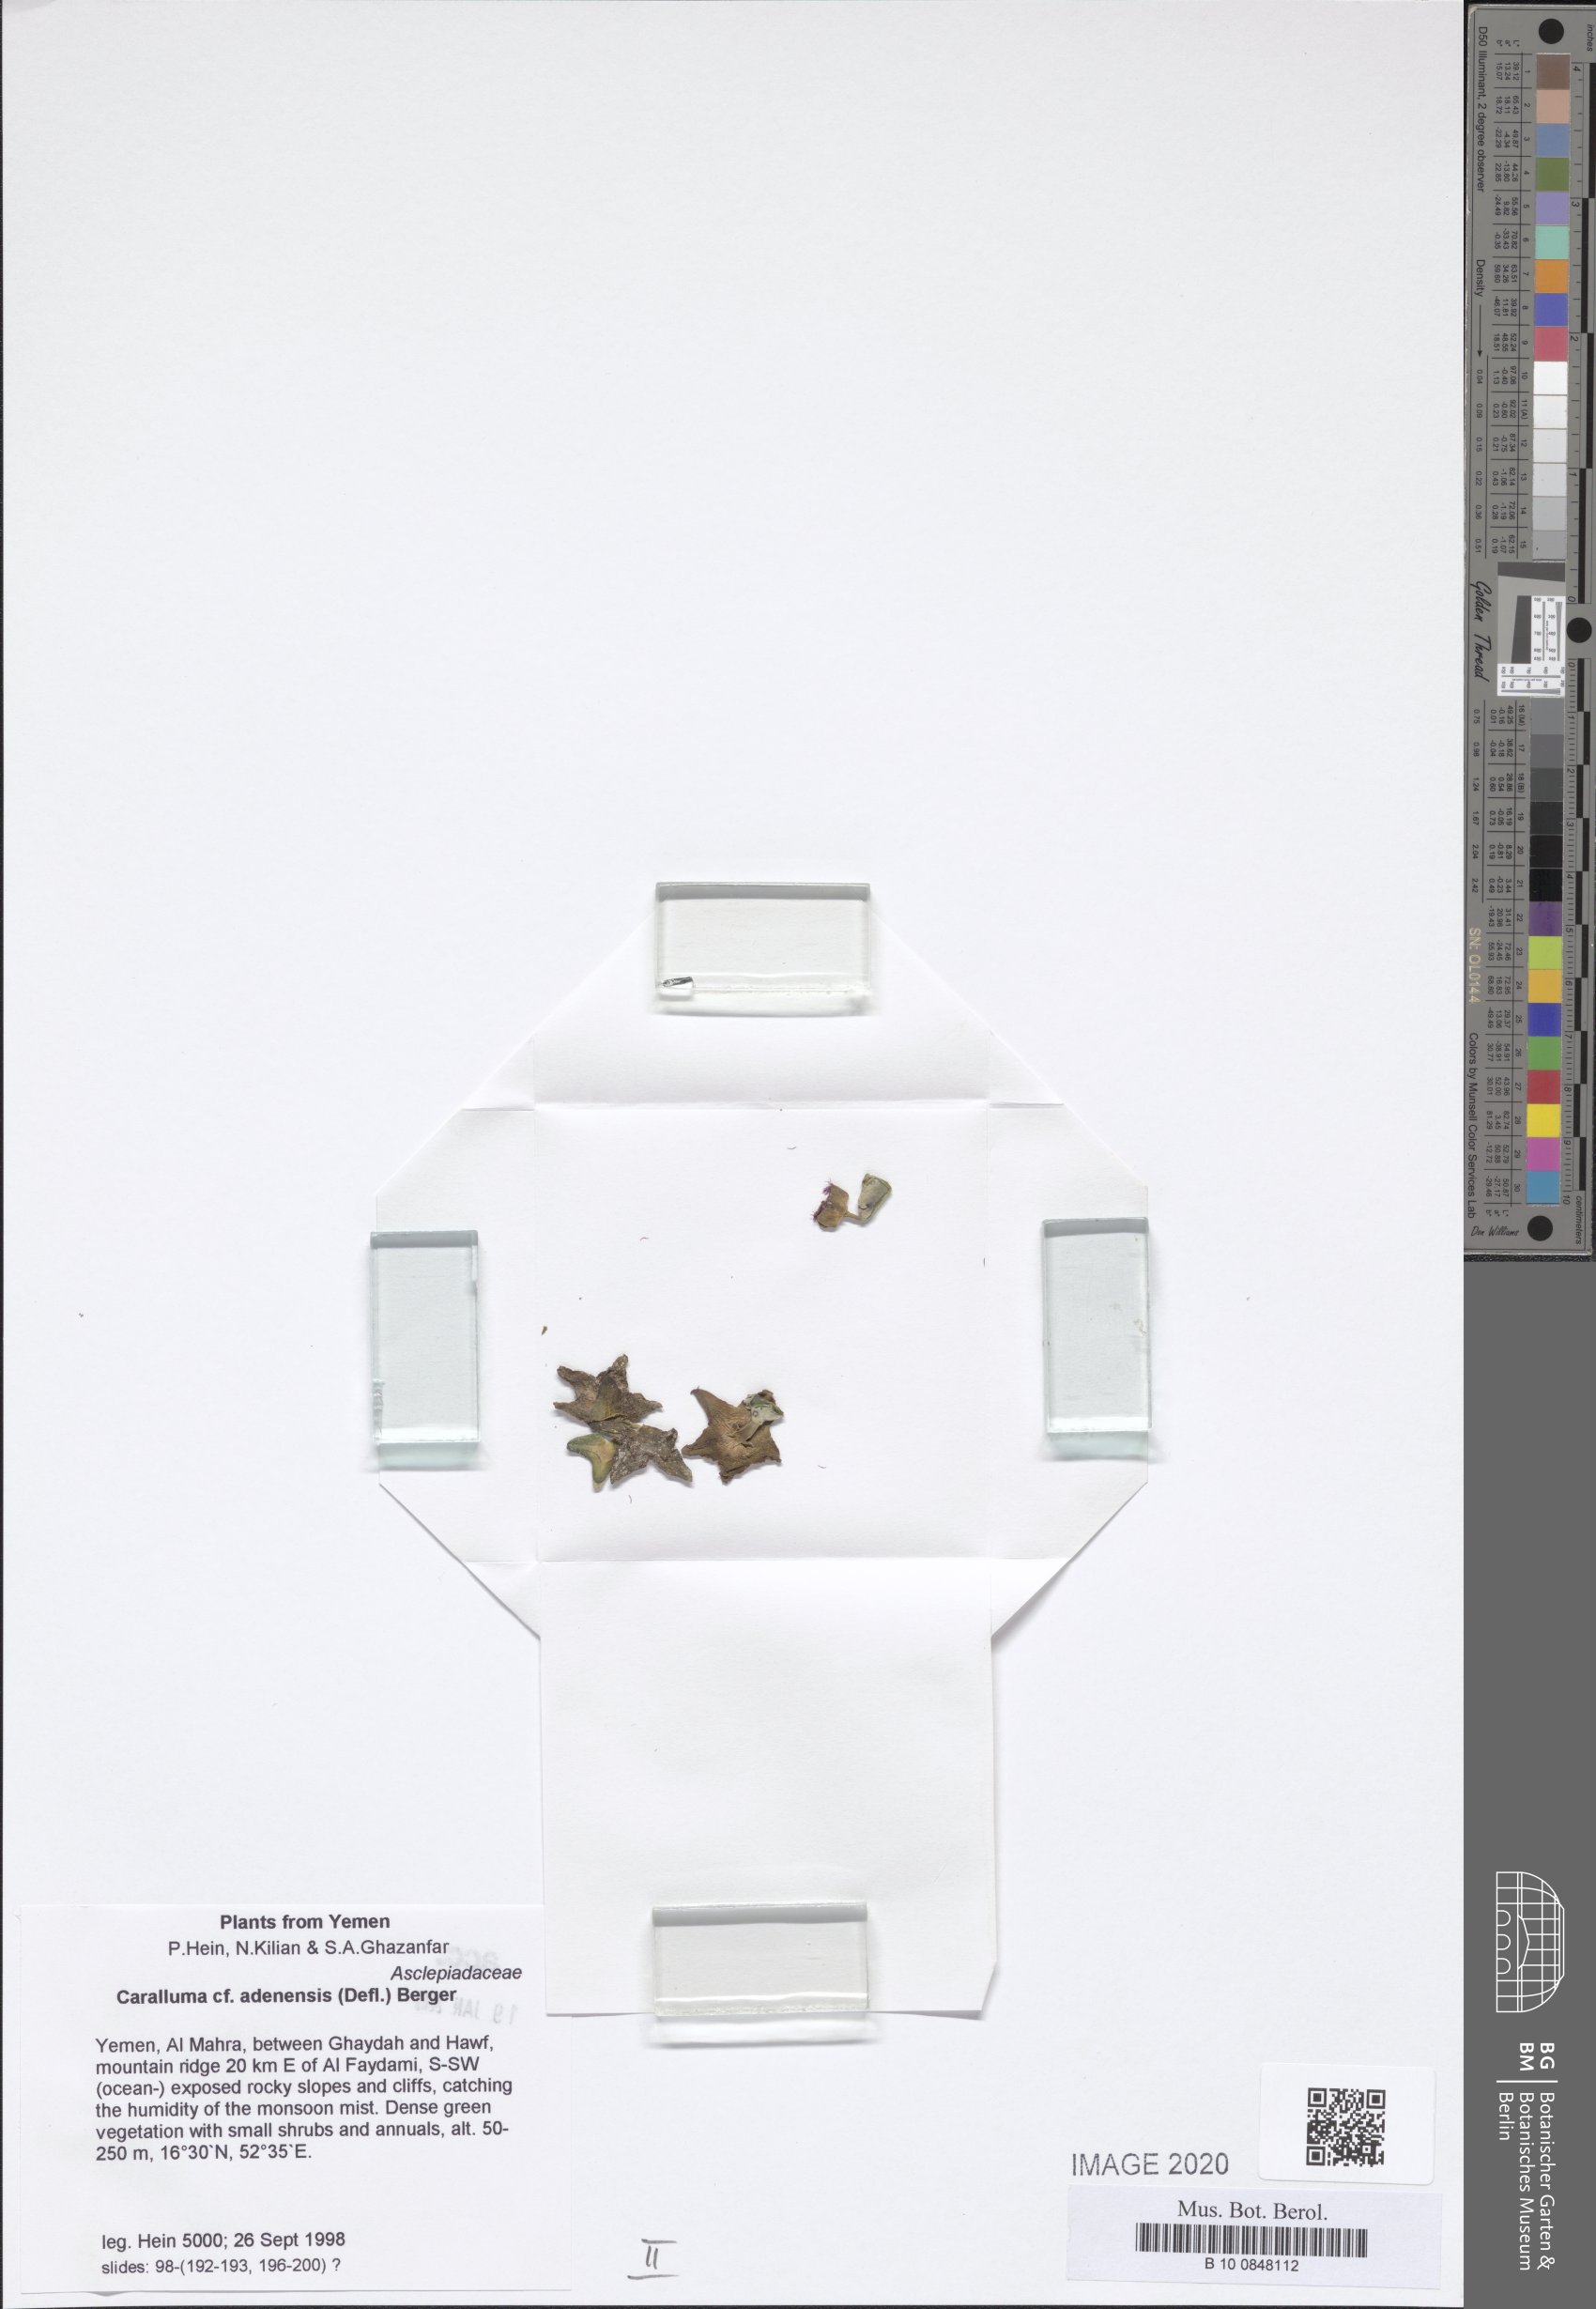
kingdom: Plantae
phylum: Tracheophyta
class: Magnoliopsida
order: Gentianales
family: Apocynaceae
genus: Ceropegia
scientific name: Ceropegia adenensis
